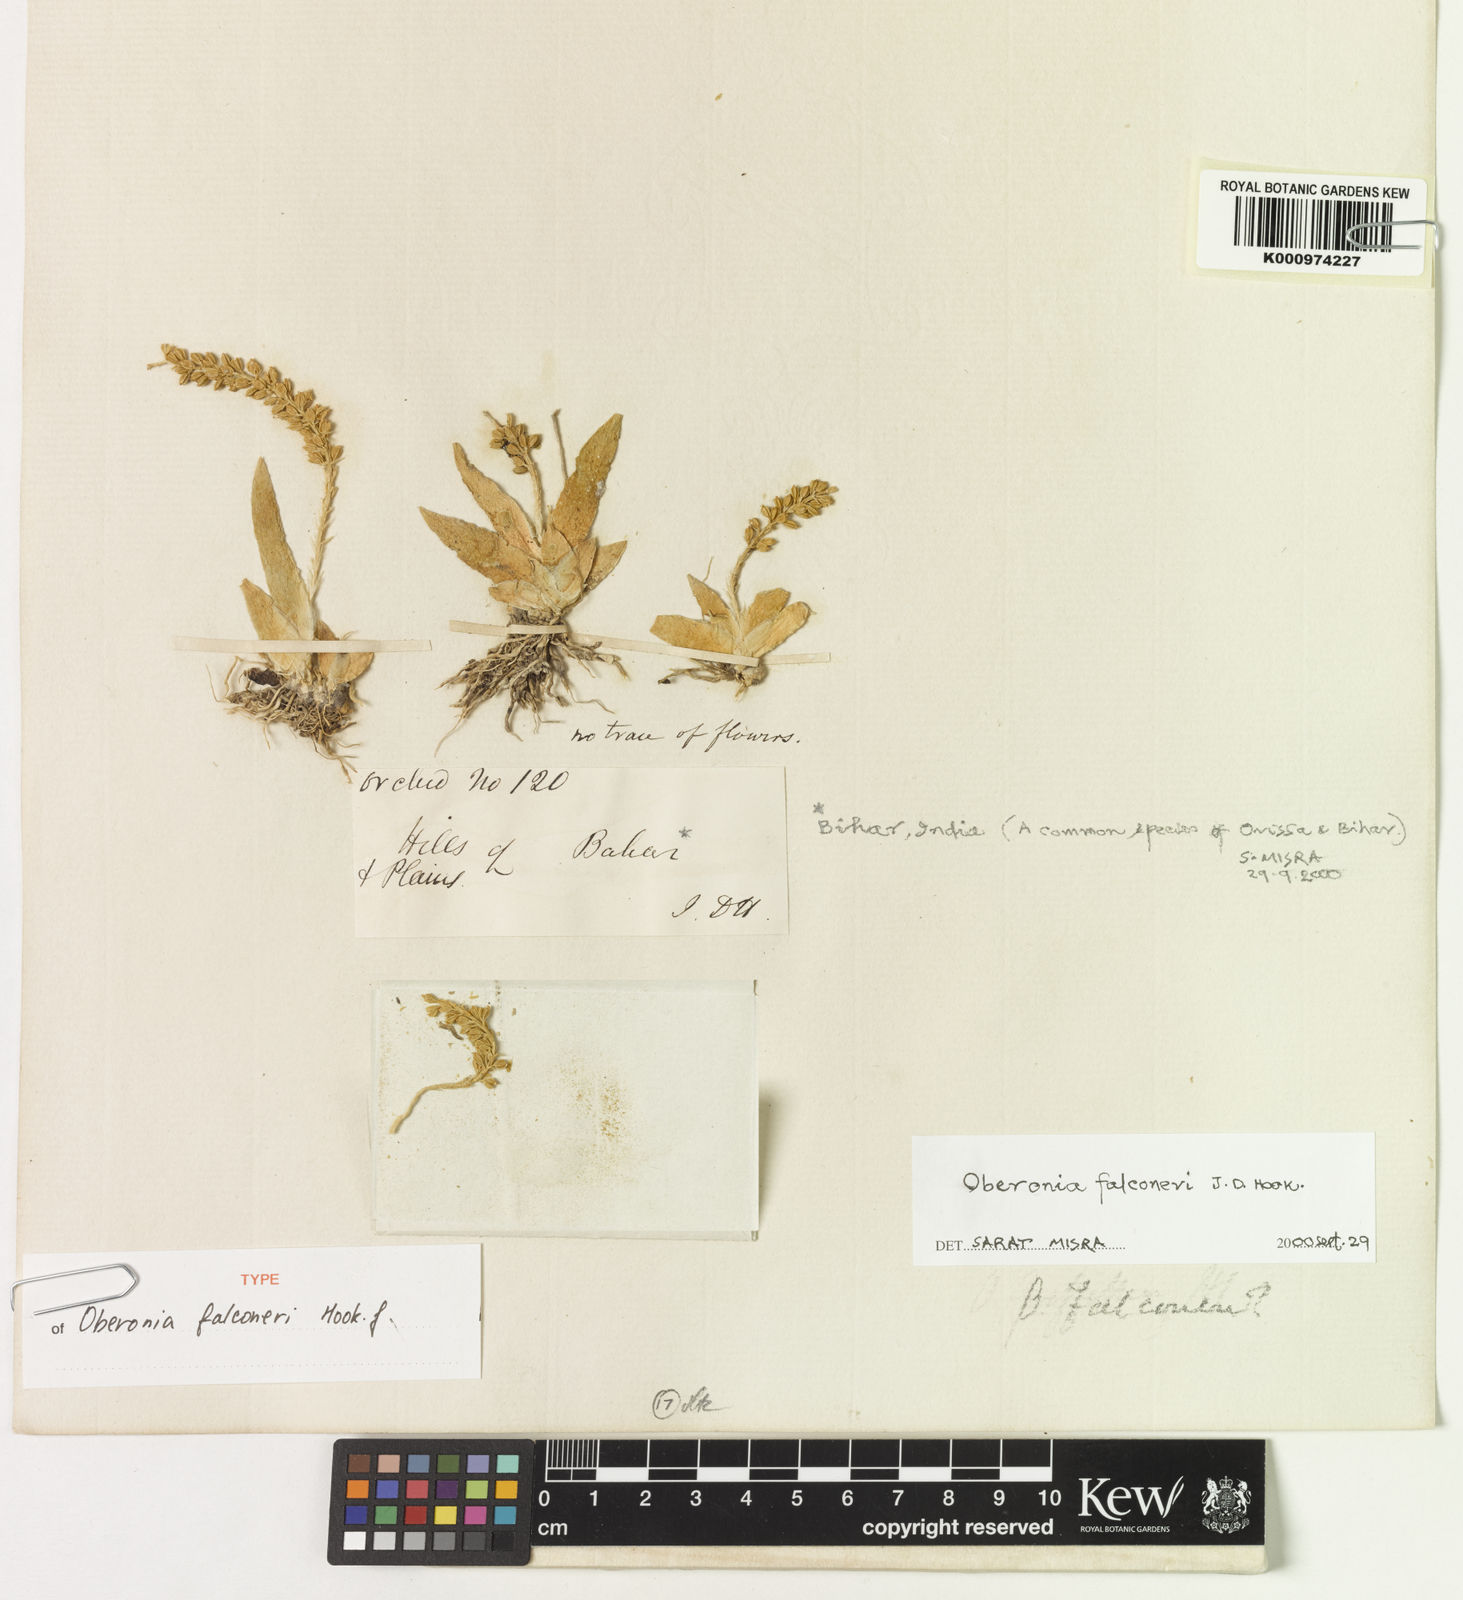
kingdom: Plantae
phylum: Tracheophyta
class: Liliopsida
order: Asparagales
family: Orchidaceae
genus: Oberonia
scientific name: Oberonia falconeri
